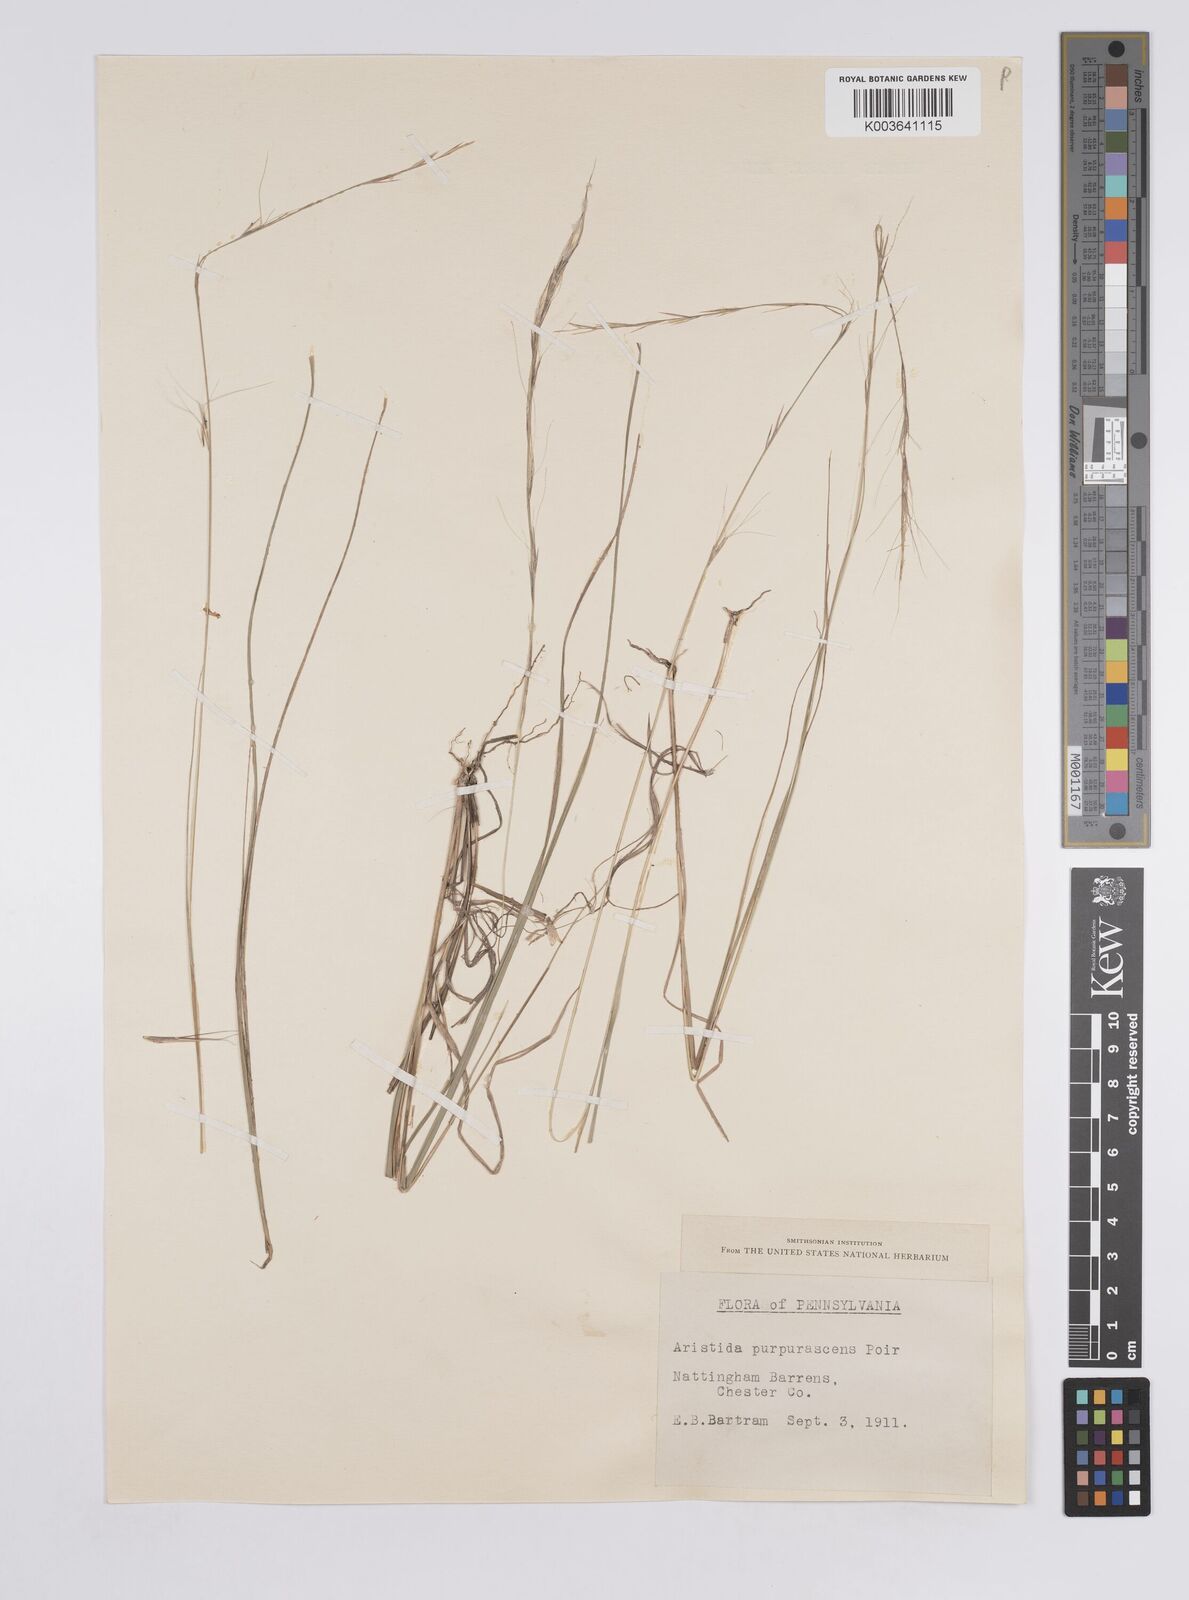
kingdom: Plantae
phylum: Tracheophyta
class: Liliopsida
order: Poales
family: Poaceae
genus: Aristida
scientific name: Aristida purpurascens
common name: Arrow-feather
